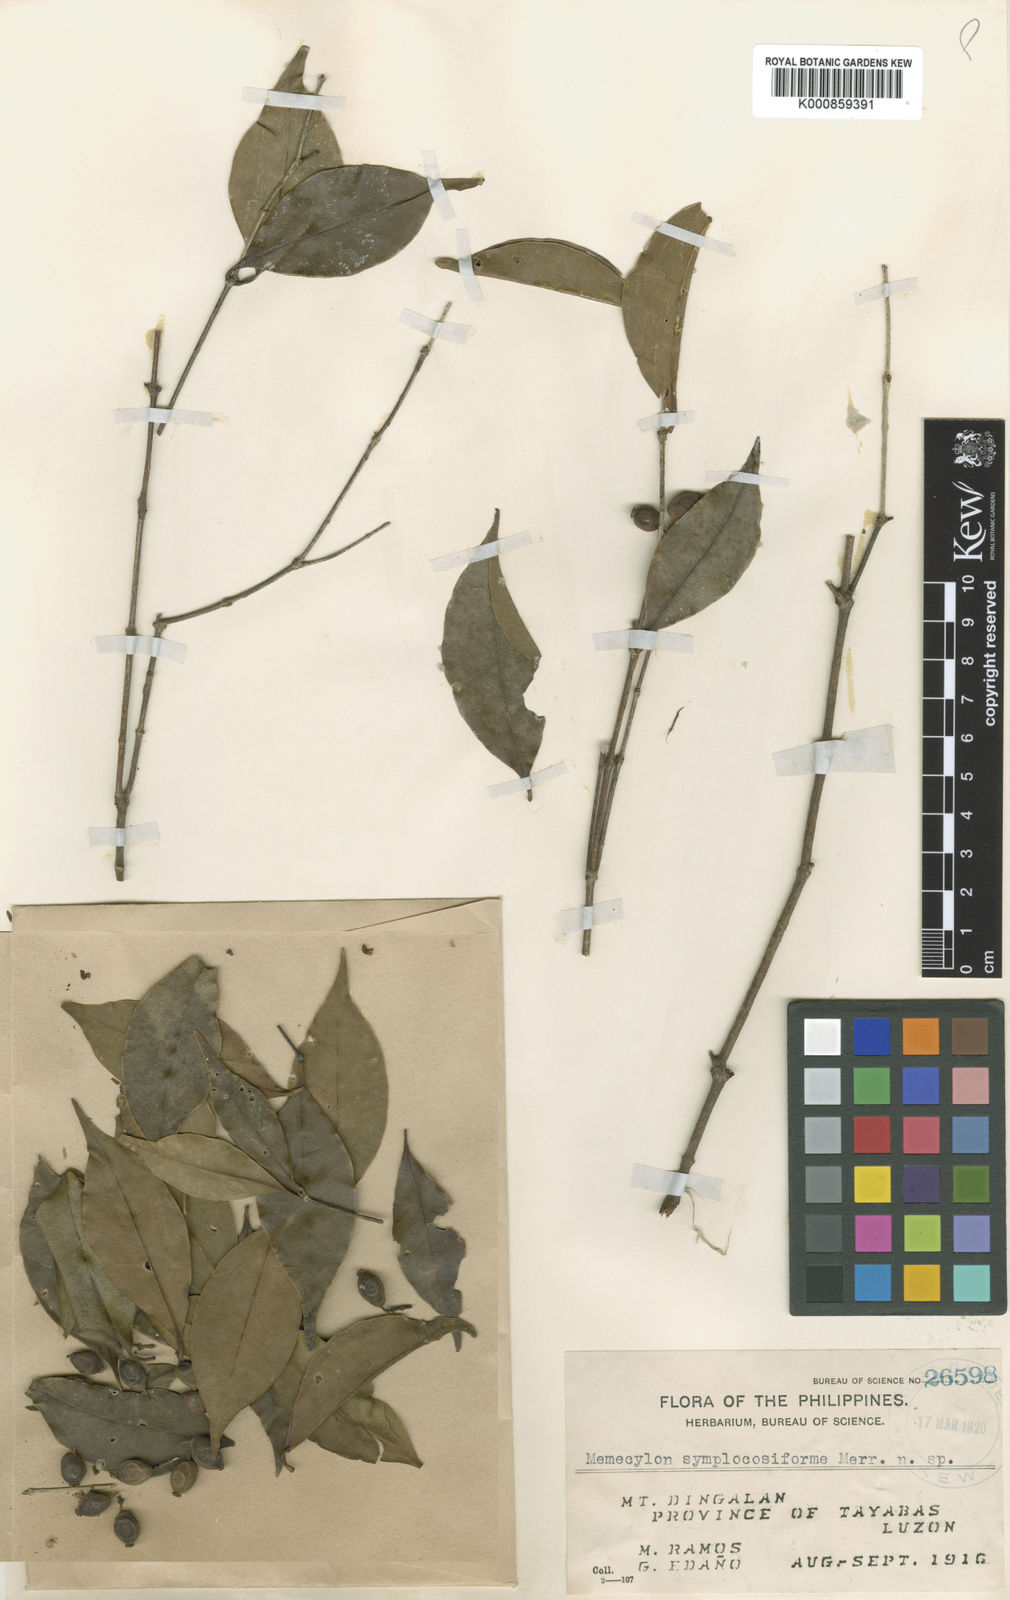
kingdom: Plantae
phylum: Tracheophyta
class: Magnoliopsida
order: Myrtales
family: Melastomataceae
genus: Memecylon
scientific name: Memecylon symplociforme
